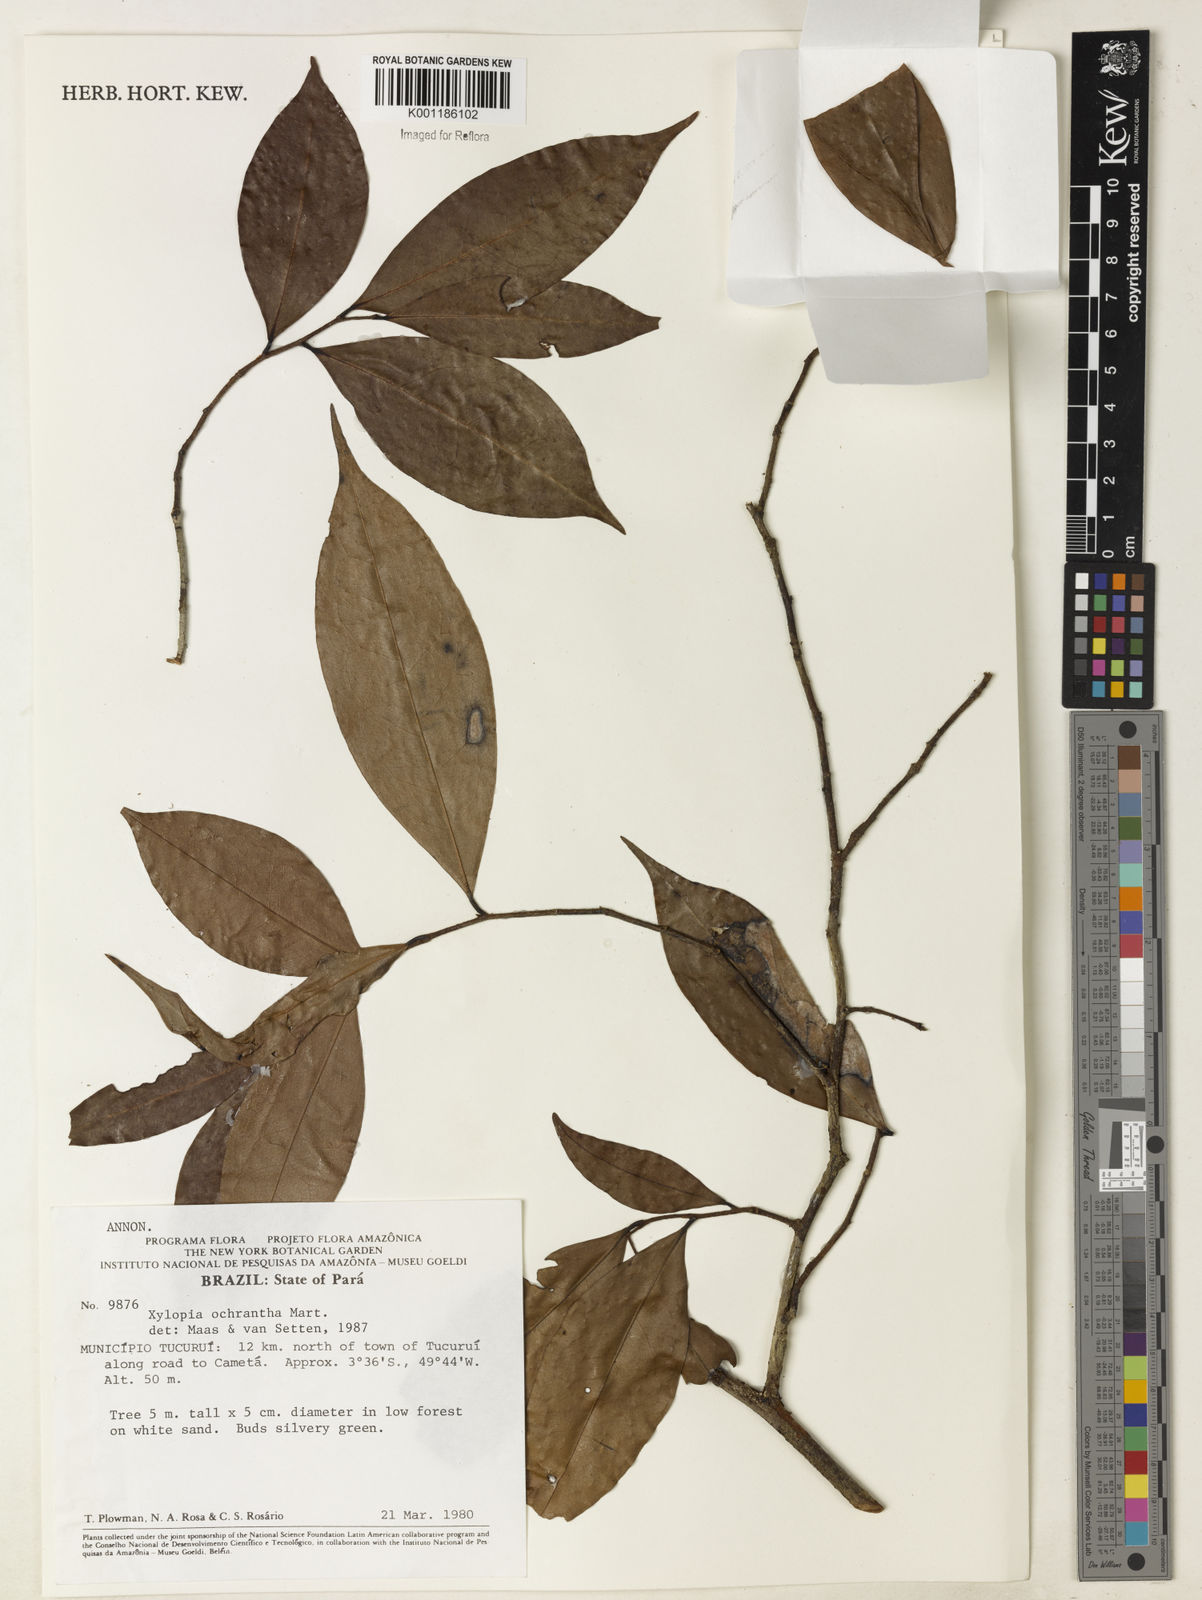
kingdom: Plantae
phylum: Tracheophyta
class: Magnoliopsida
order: Magnoliales
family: Annonaceae
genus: Xylopia
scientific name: Xylopia ochrantha
